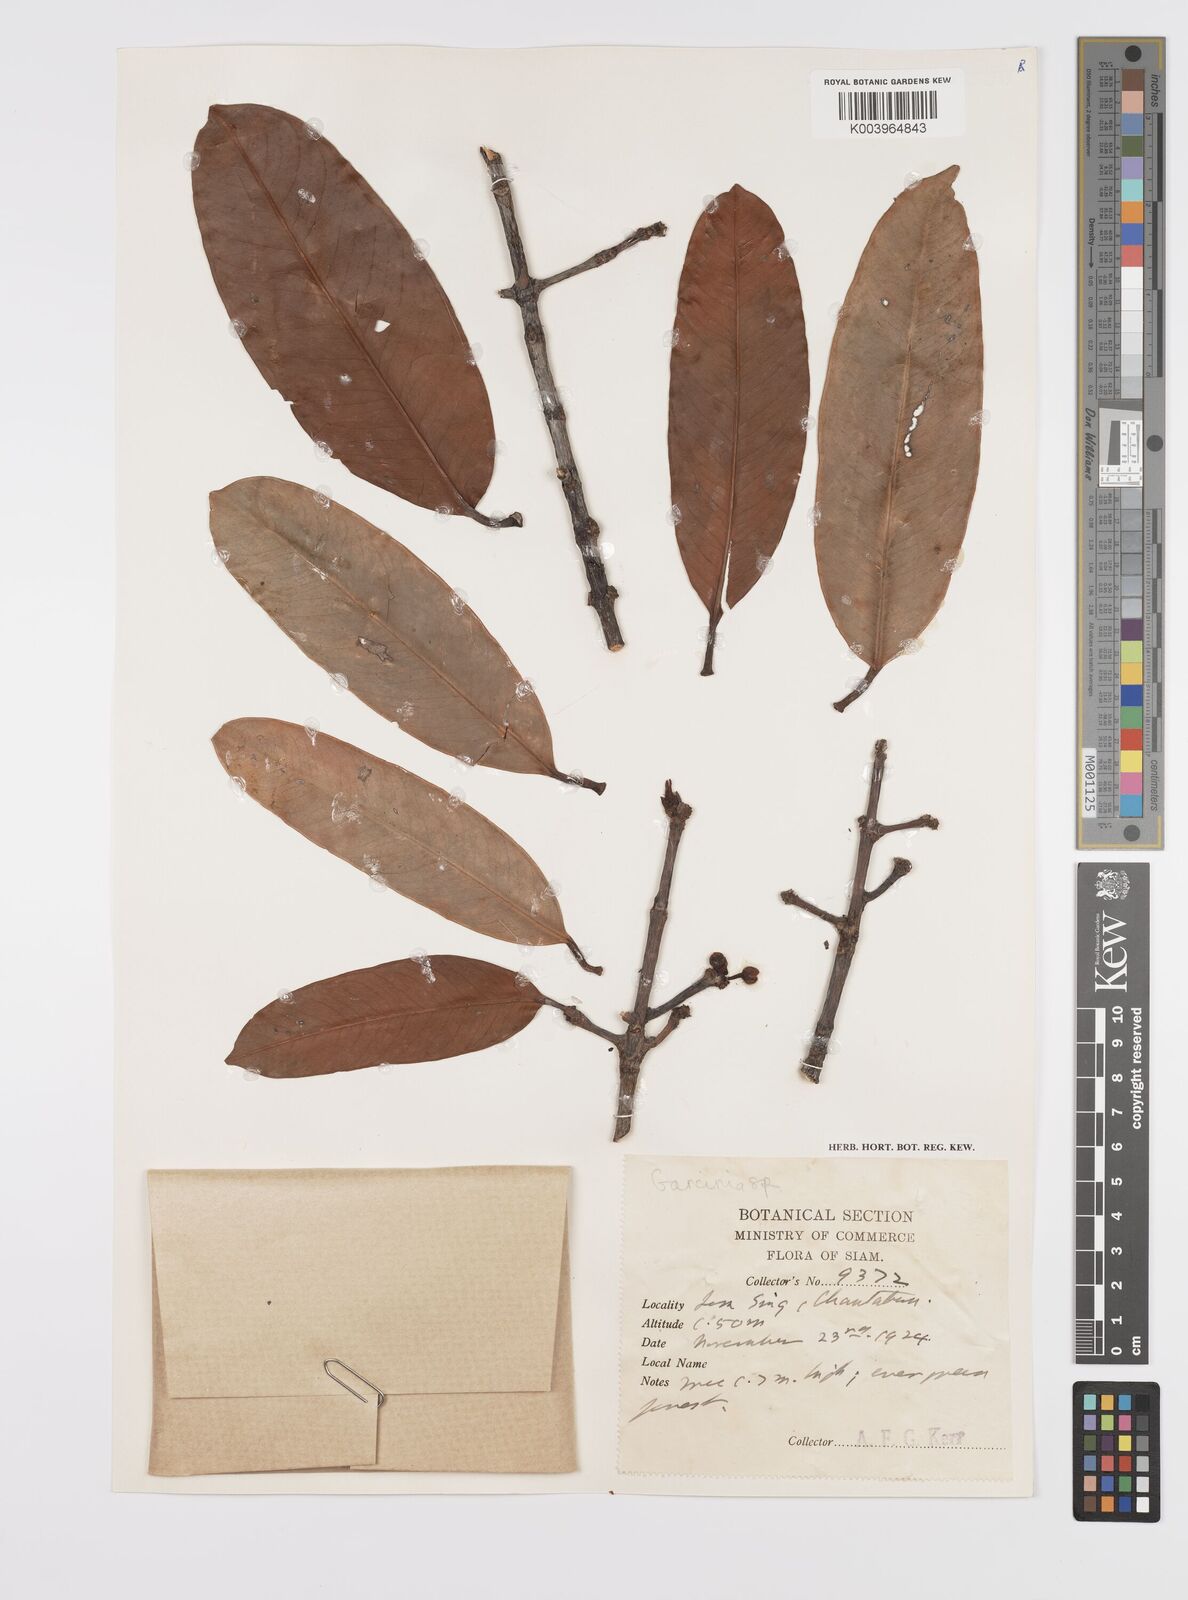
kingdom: Plantae
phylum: Tracheophyta
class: Magnoliopsida
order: Malpighiales
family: Clusiaceae
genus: Garcinia
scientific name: Garcinia
